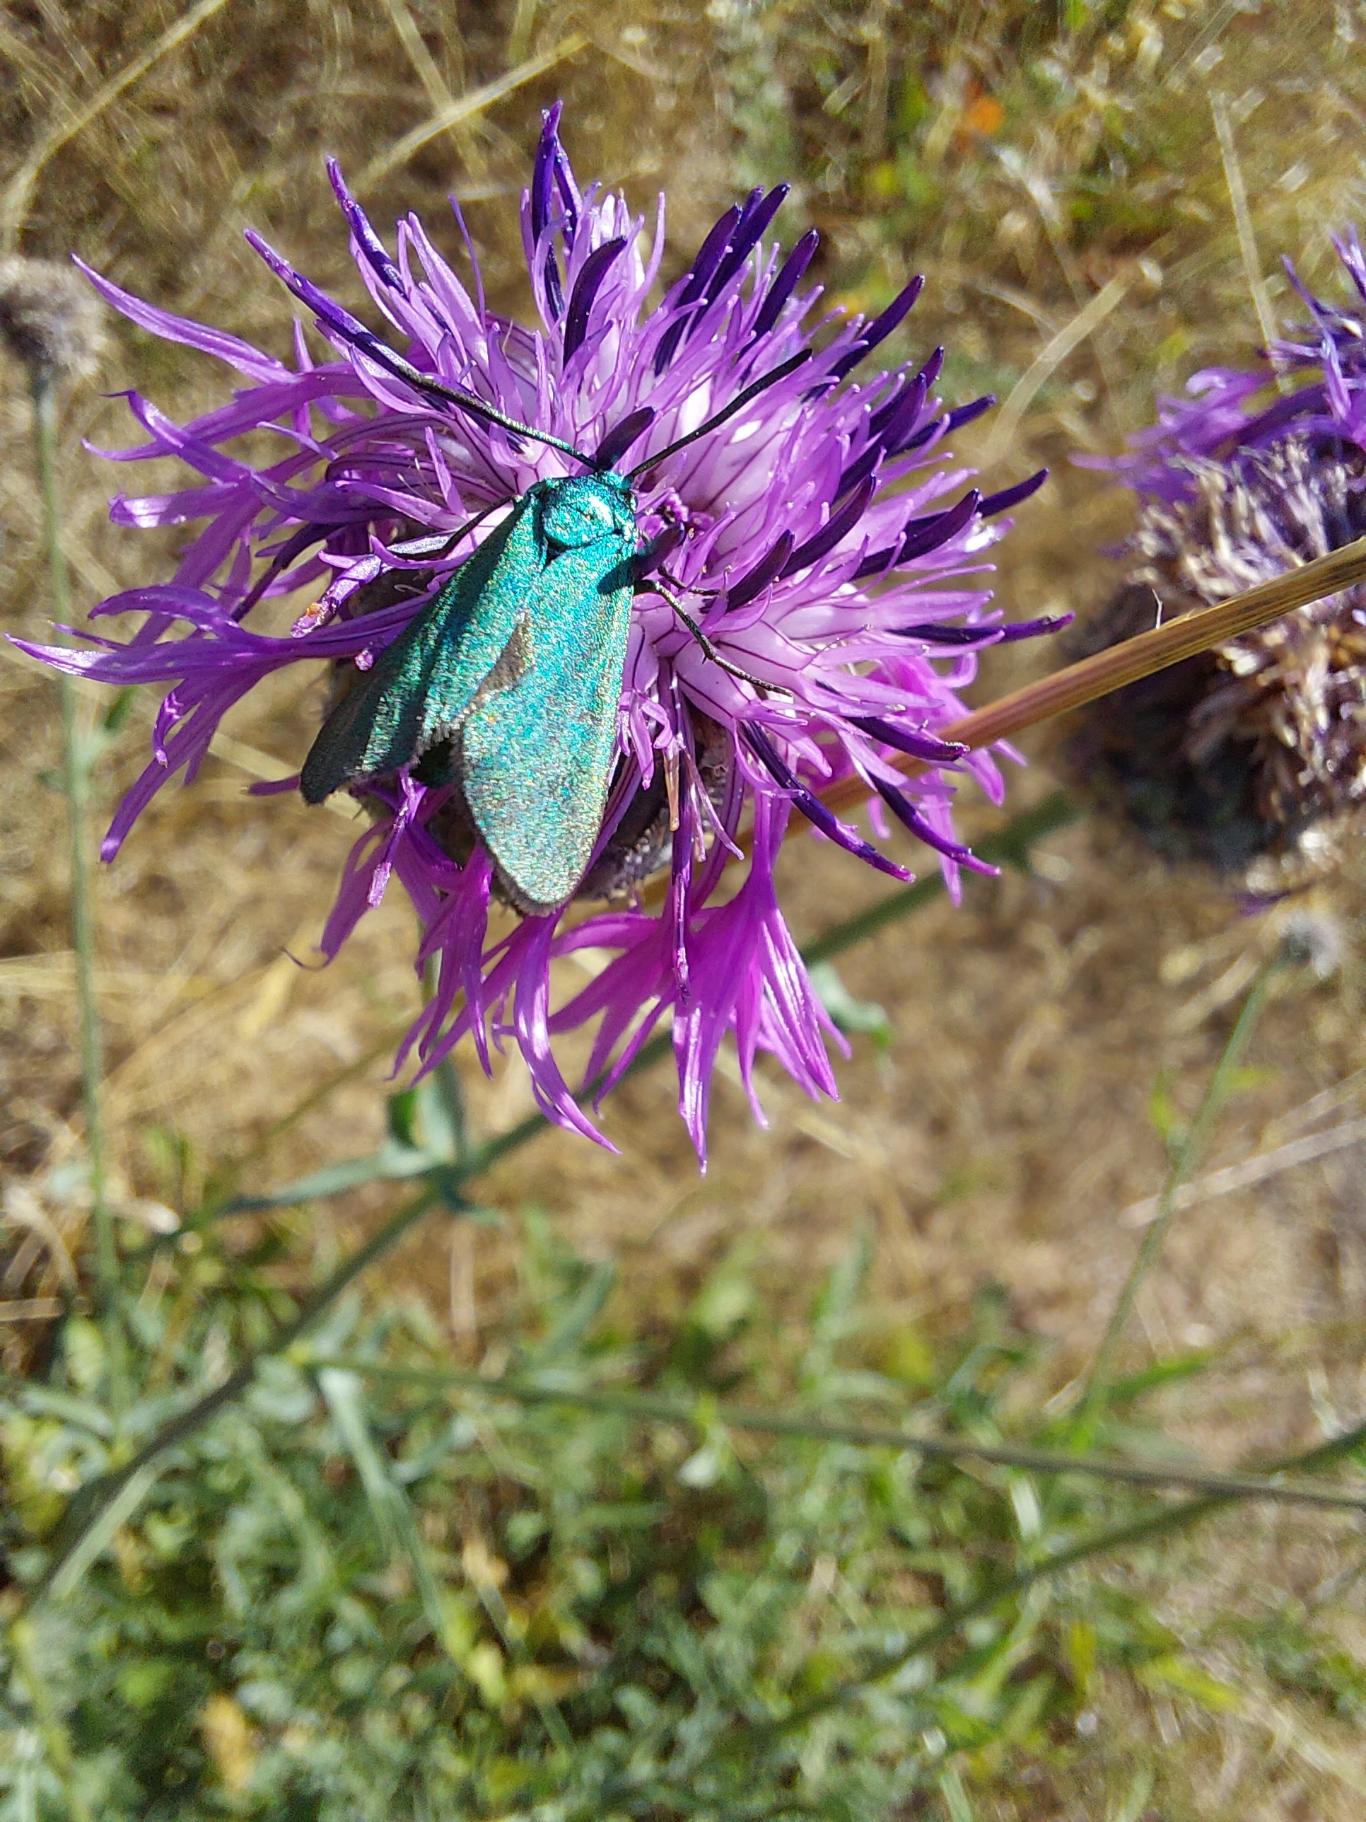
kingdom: Animalia
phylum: Arthropoda
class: Insecta
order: Lepidoptera
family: Zygaenidae
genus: Adscita
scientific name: Adscita statices
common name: Metalvinge
